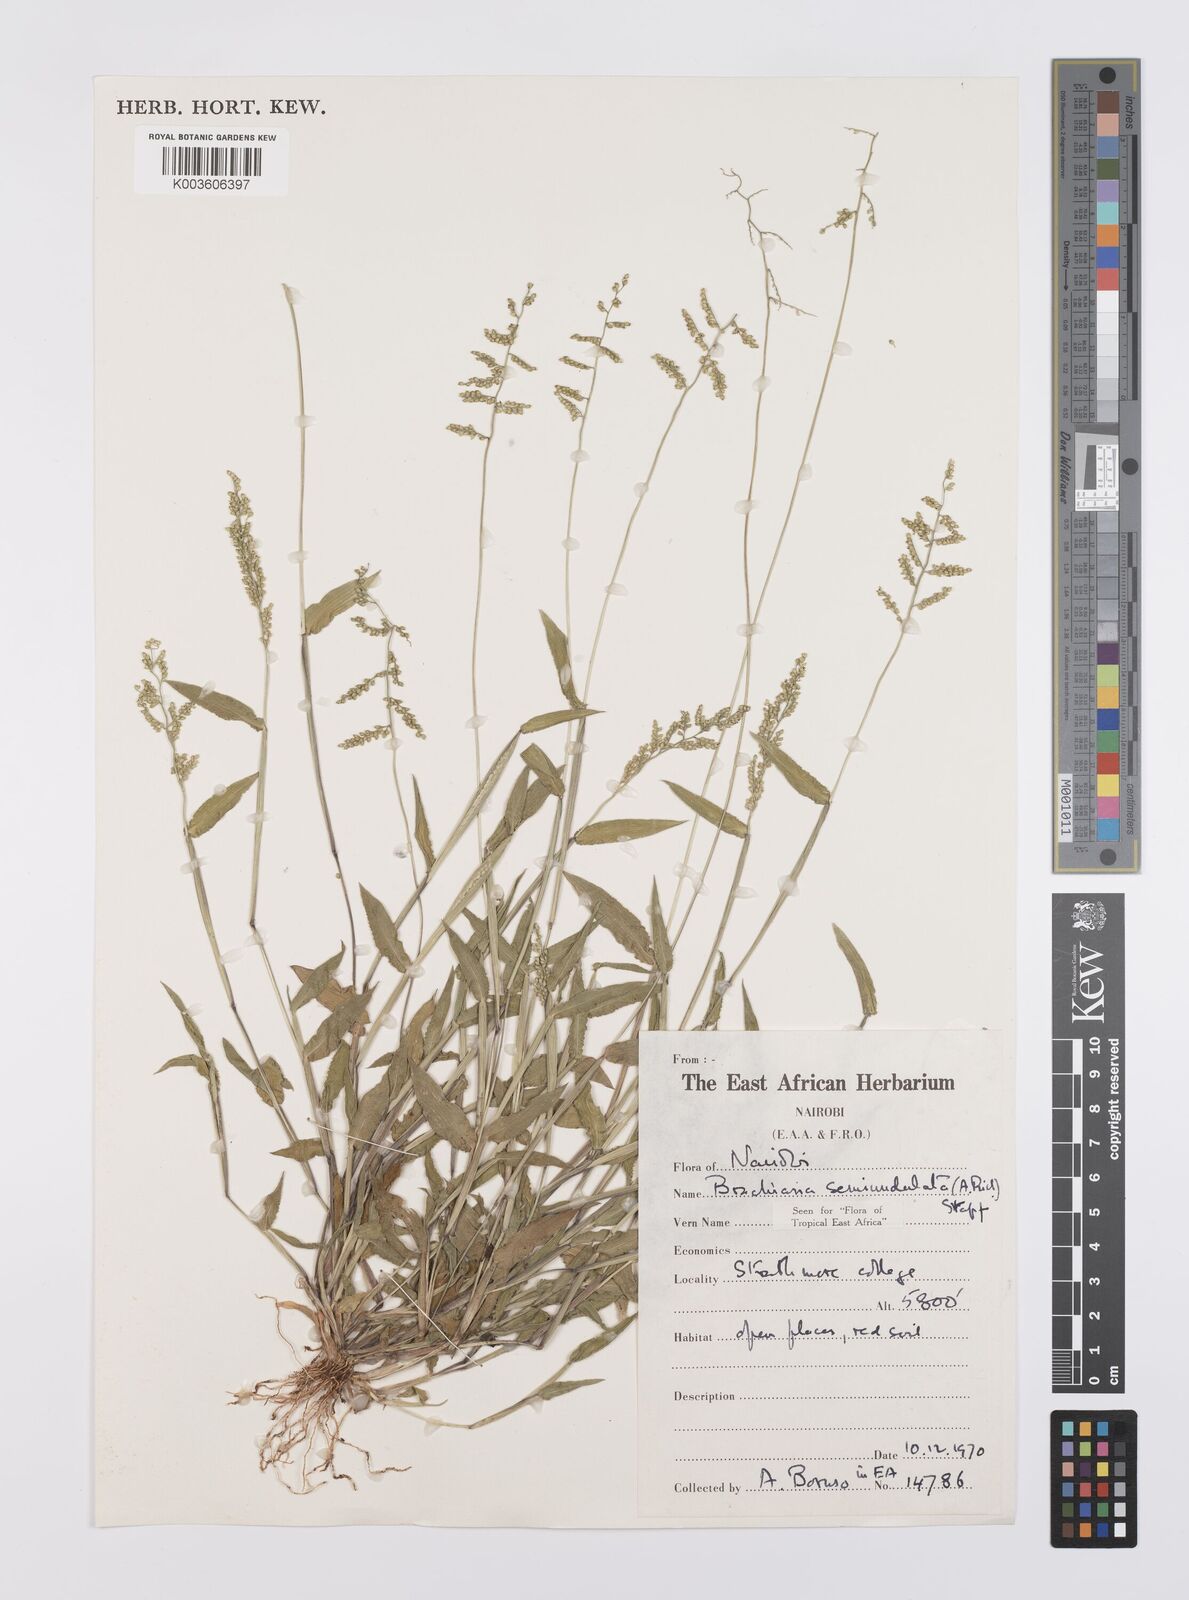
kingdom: Plantae
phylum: Tracheophyta
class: Liliopsida
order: Poales
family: Poaceae
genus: Urochloa
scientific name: Urochloa semiundulata
